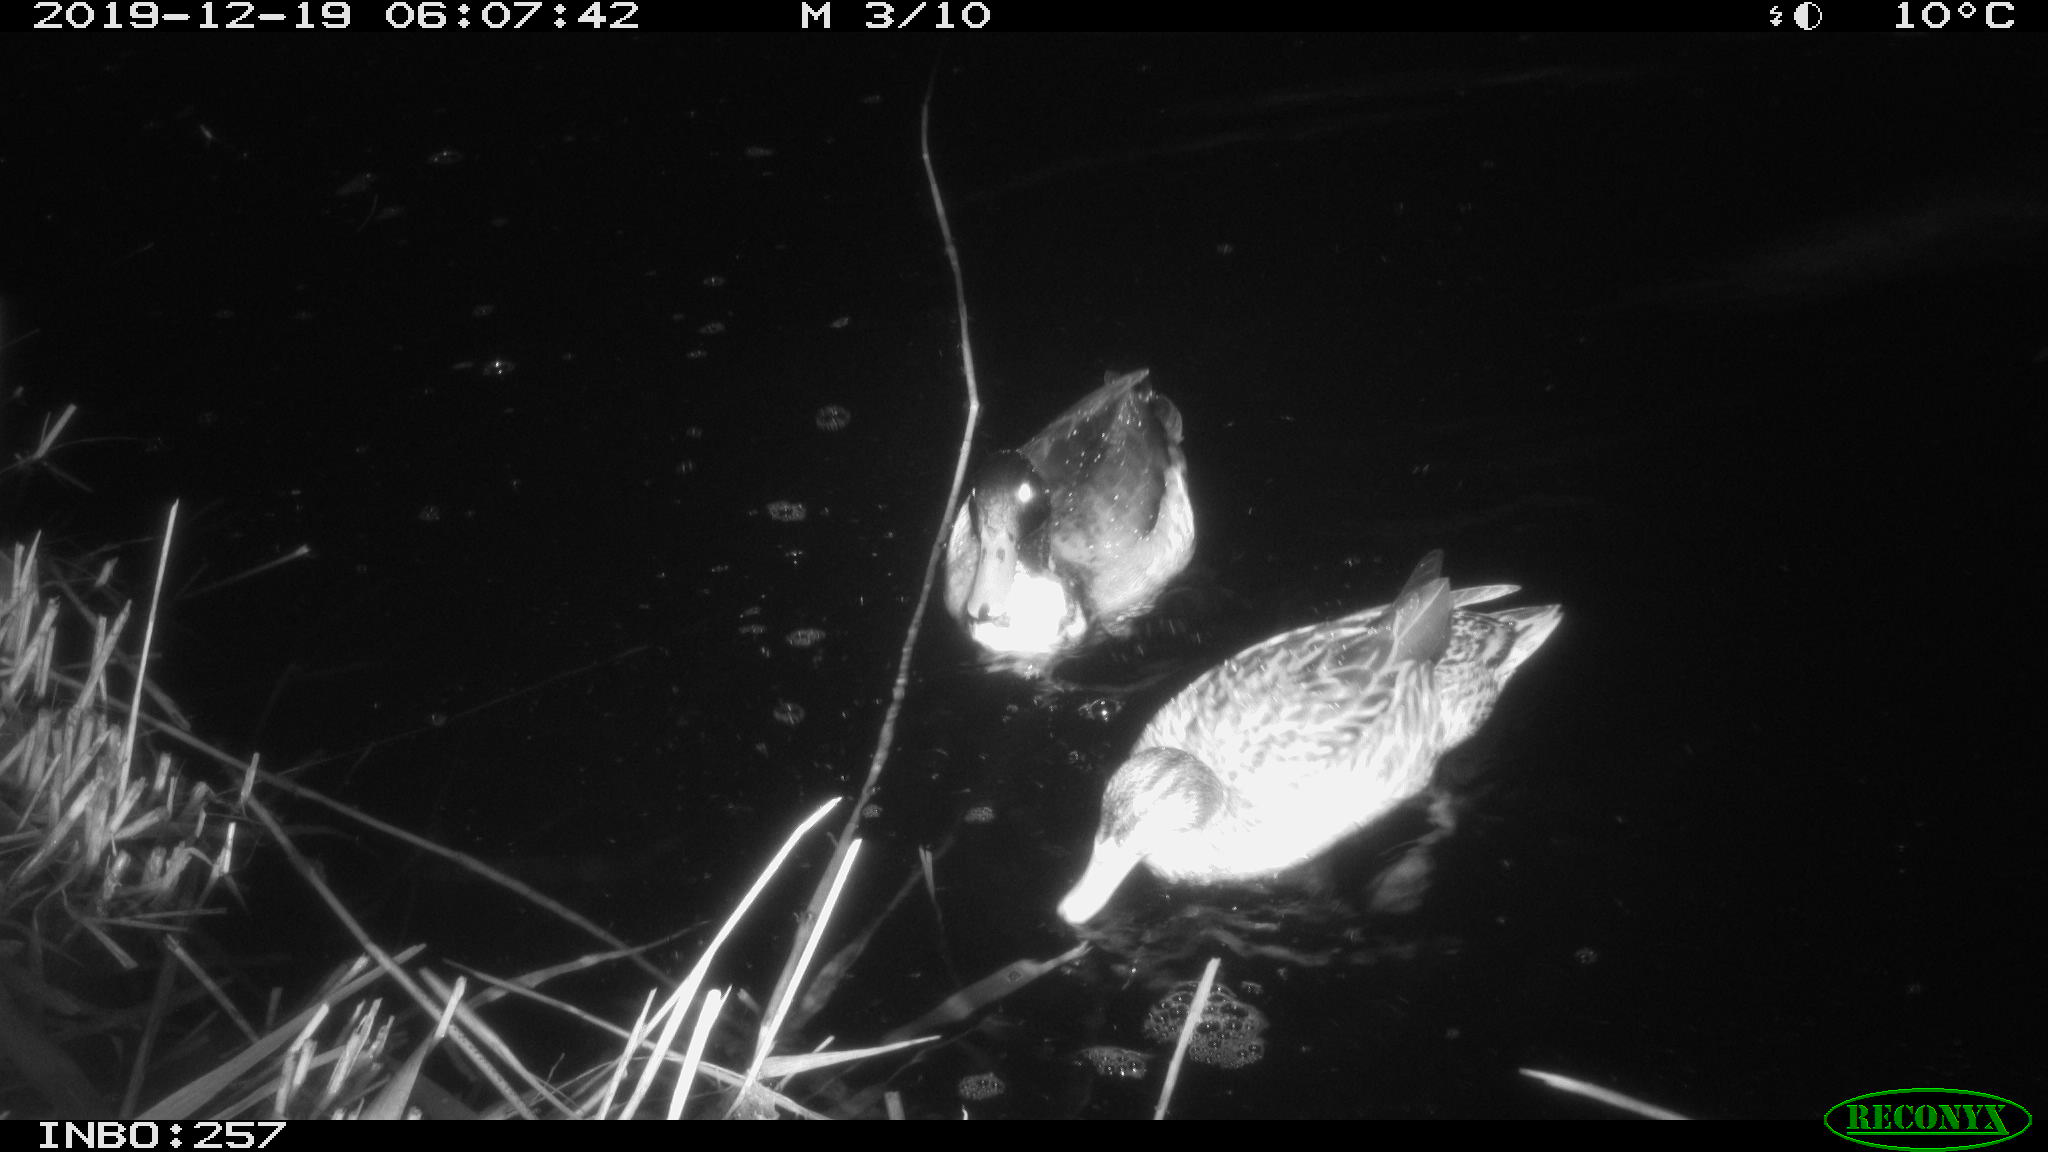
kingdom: Animalia
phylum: Chordata
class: Aves
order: Anseriformes
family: Anatidae
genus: Anas
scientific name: Anas platyrhynchos
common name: Mallard
